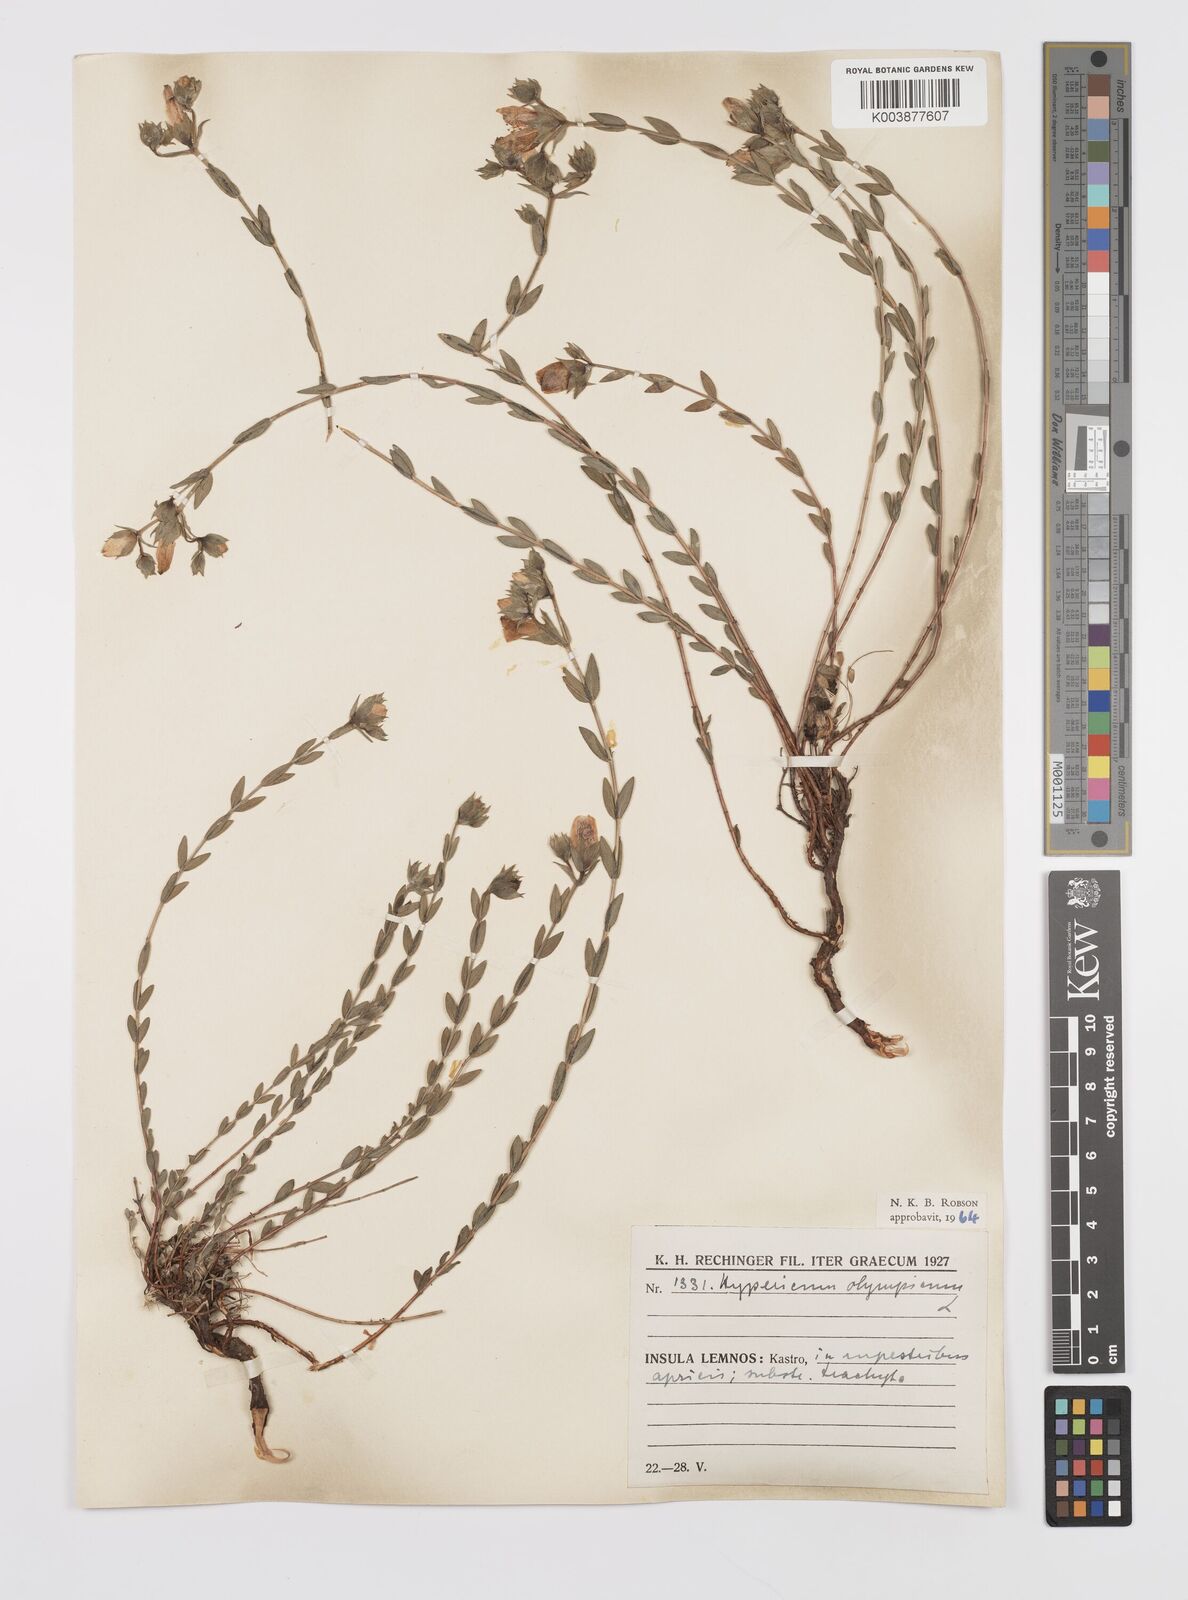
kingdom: Plantae
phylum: Tracheophyta
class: Magnoliopsida
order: Malpighiales
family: Hypericaceae
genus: Hypericum
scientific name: Hypericum olympicum
